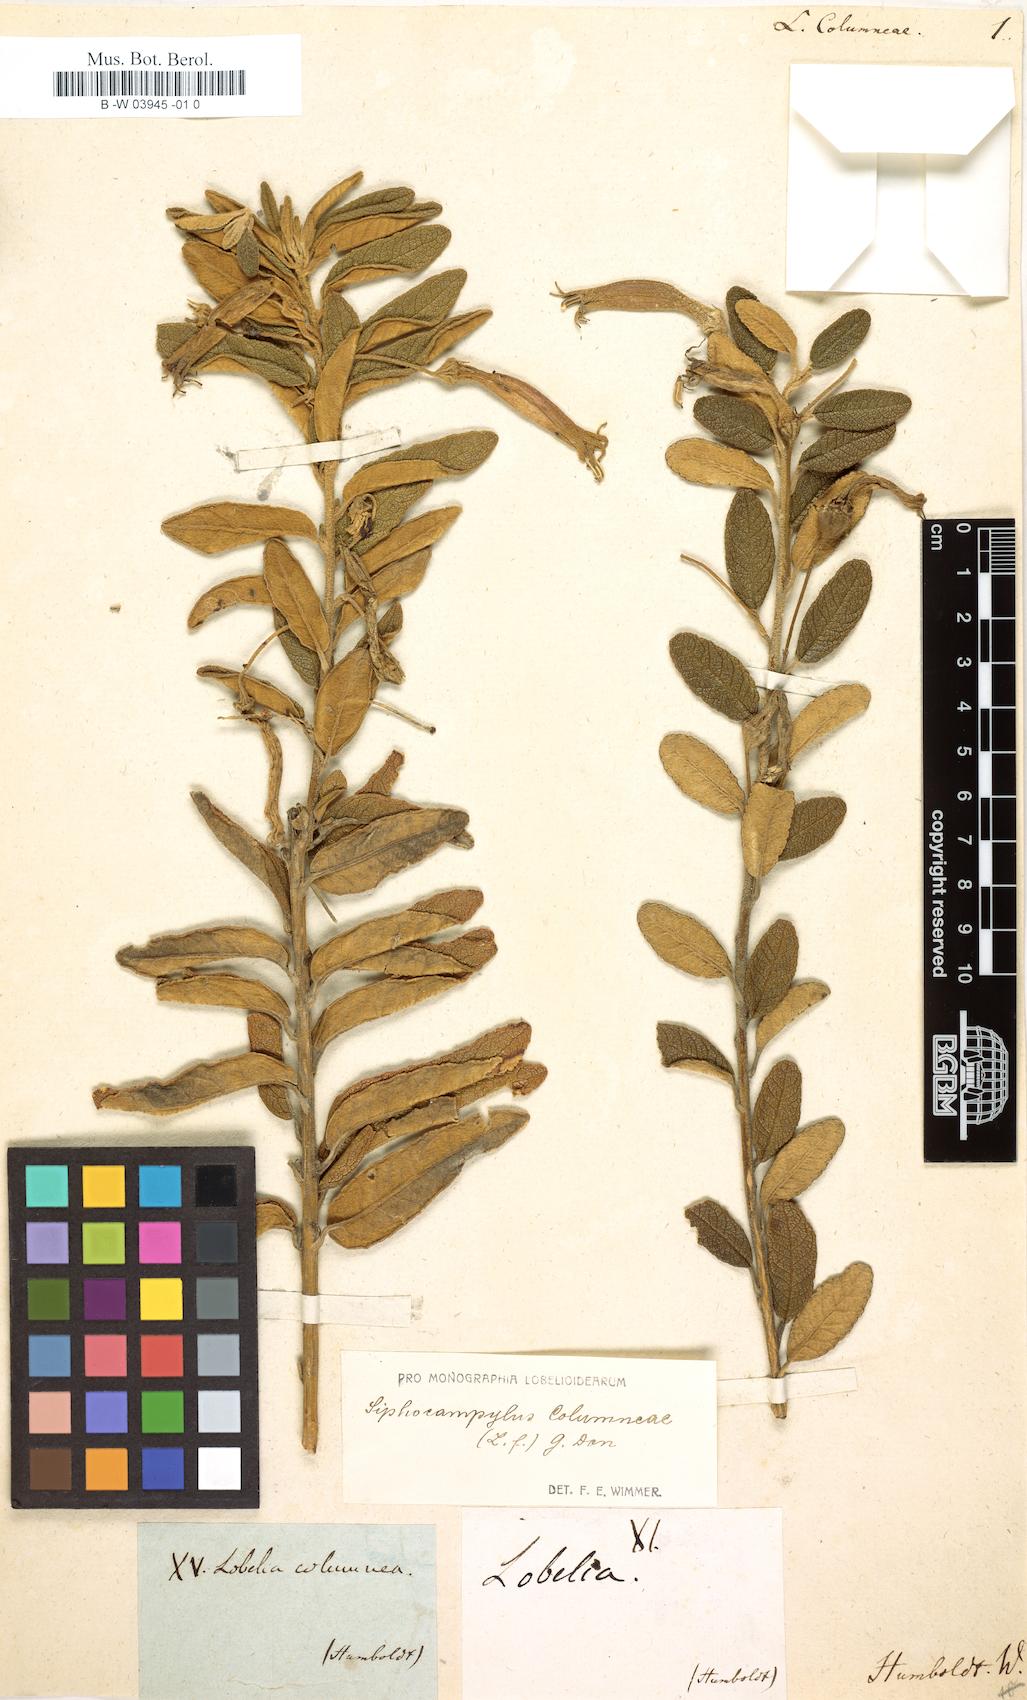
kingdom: Plantae
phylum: Tracheophyta
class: Magnoliopsida
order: Asterales
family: Campanulaceae
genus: Siphocampylus
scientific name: Siphocampylus columnae
